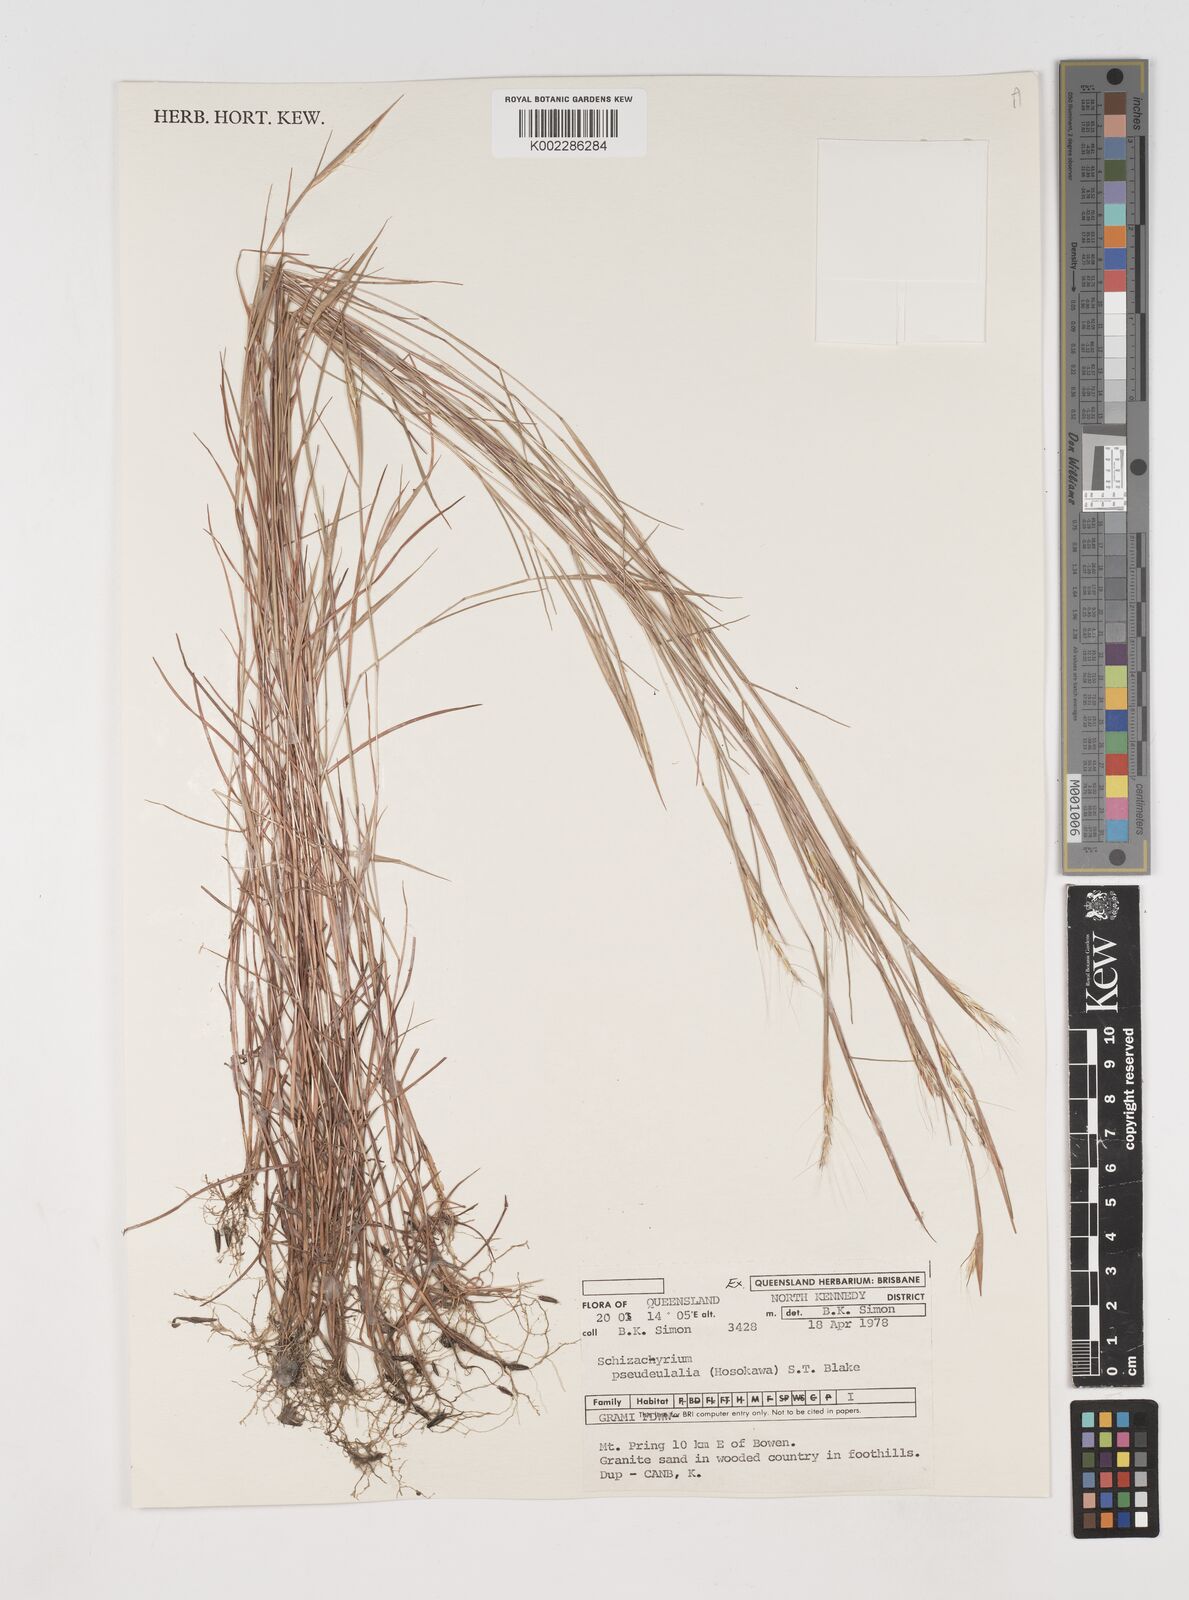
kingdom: Plantae
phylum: Tracheophyta
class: Liliopsida
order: Poales
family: Poaceae
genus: Schizachyrium
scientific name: Schizachyrium pseudeulalia
